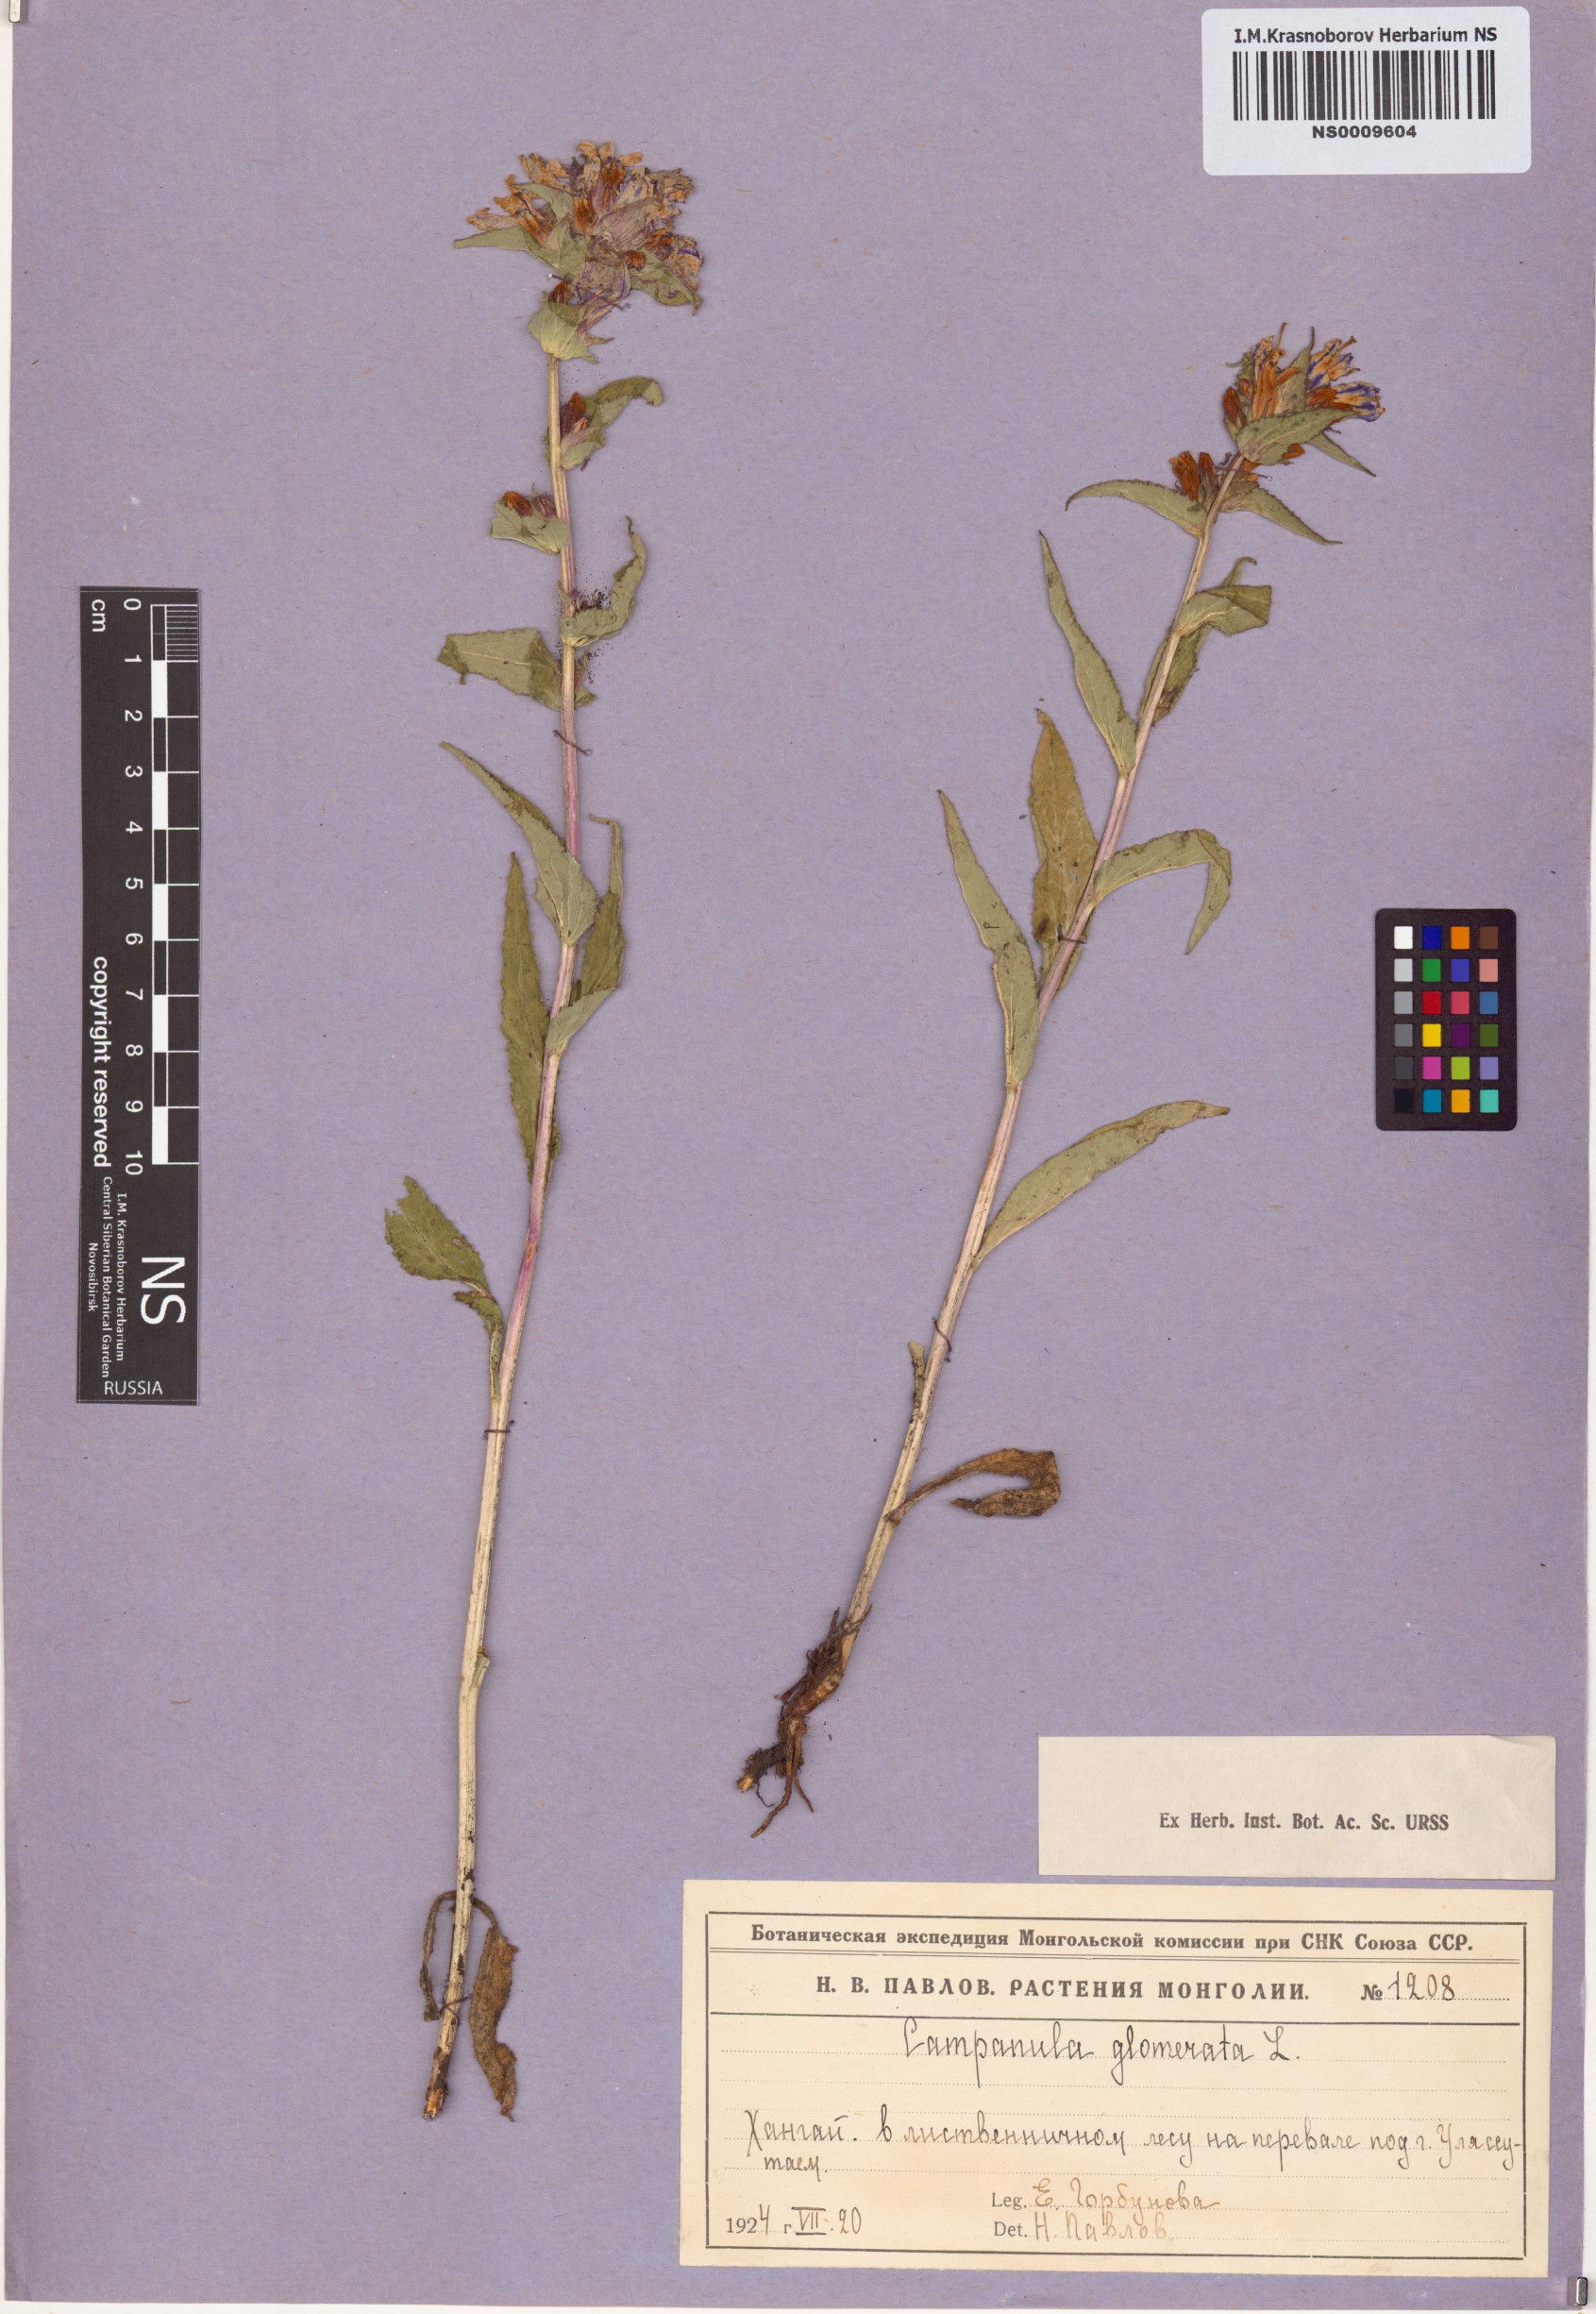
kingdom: Plantae
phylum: Tracheophyta
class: Magnoliopsida
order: Asterales
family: Campanulaceae
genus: Campanula
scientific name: Campanula glomerata
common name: Clustered bellflower
